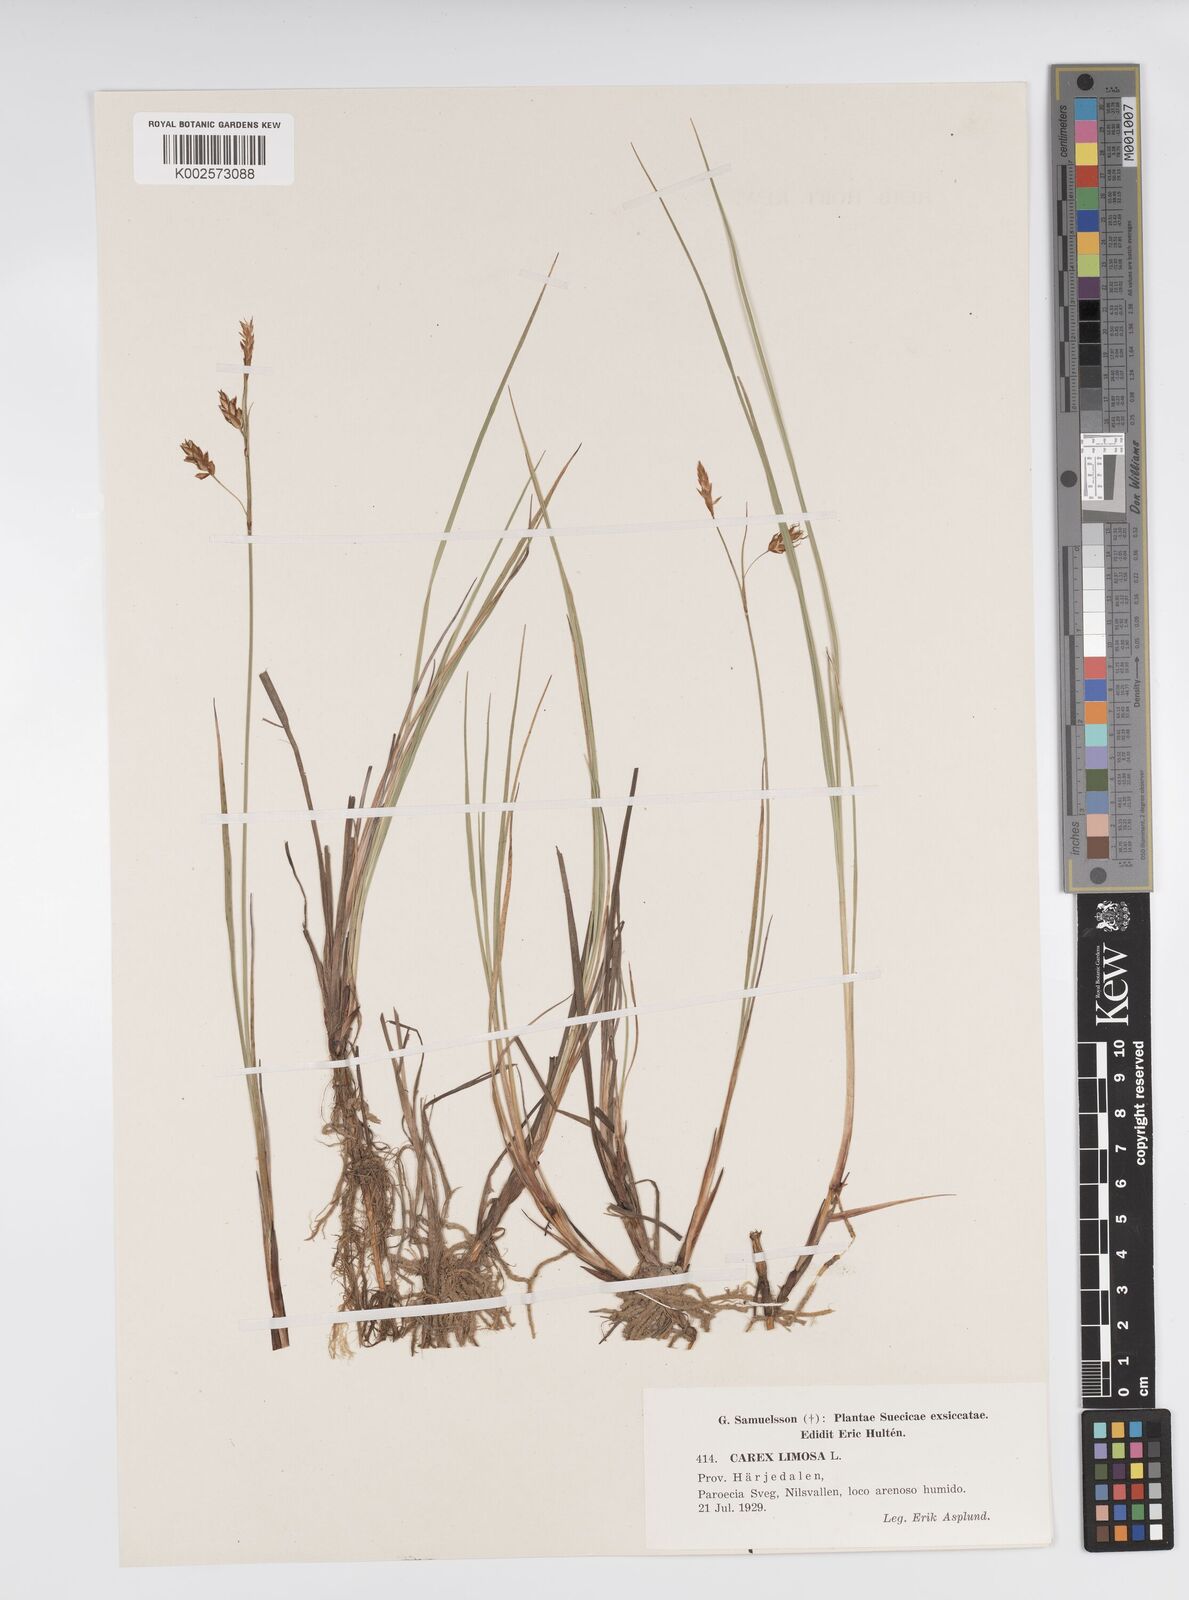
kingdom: Plantae
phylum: Tracheophyta
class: Liliopsida
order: Poales
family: Cyperaceae
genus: Carex
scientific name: Carex limosa
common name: Bog sedge
